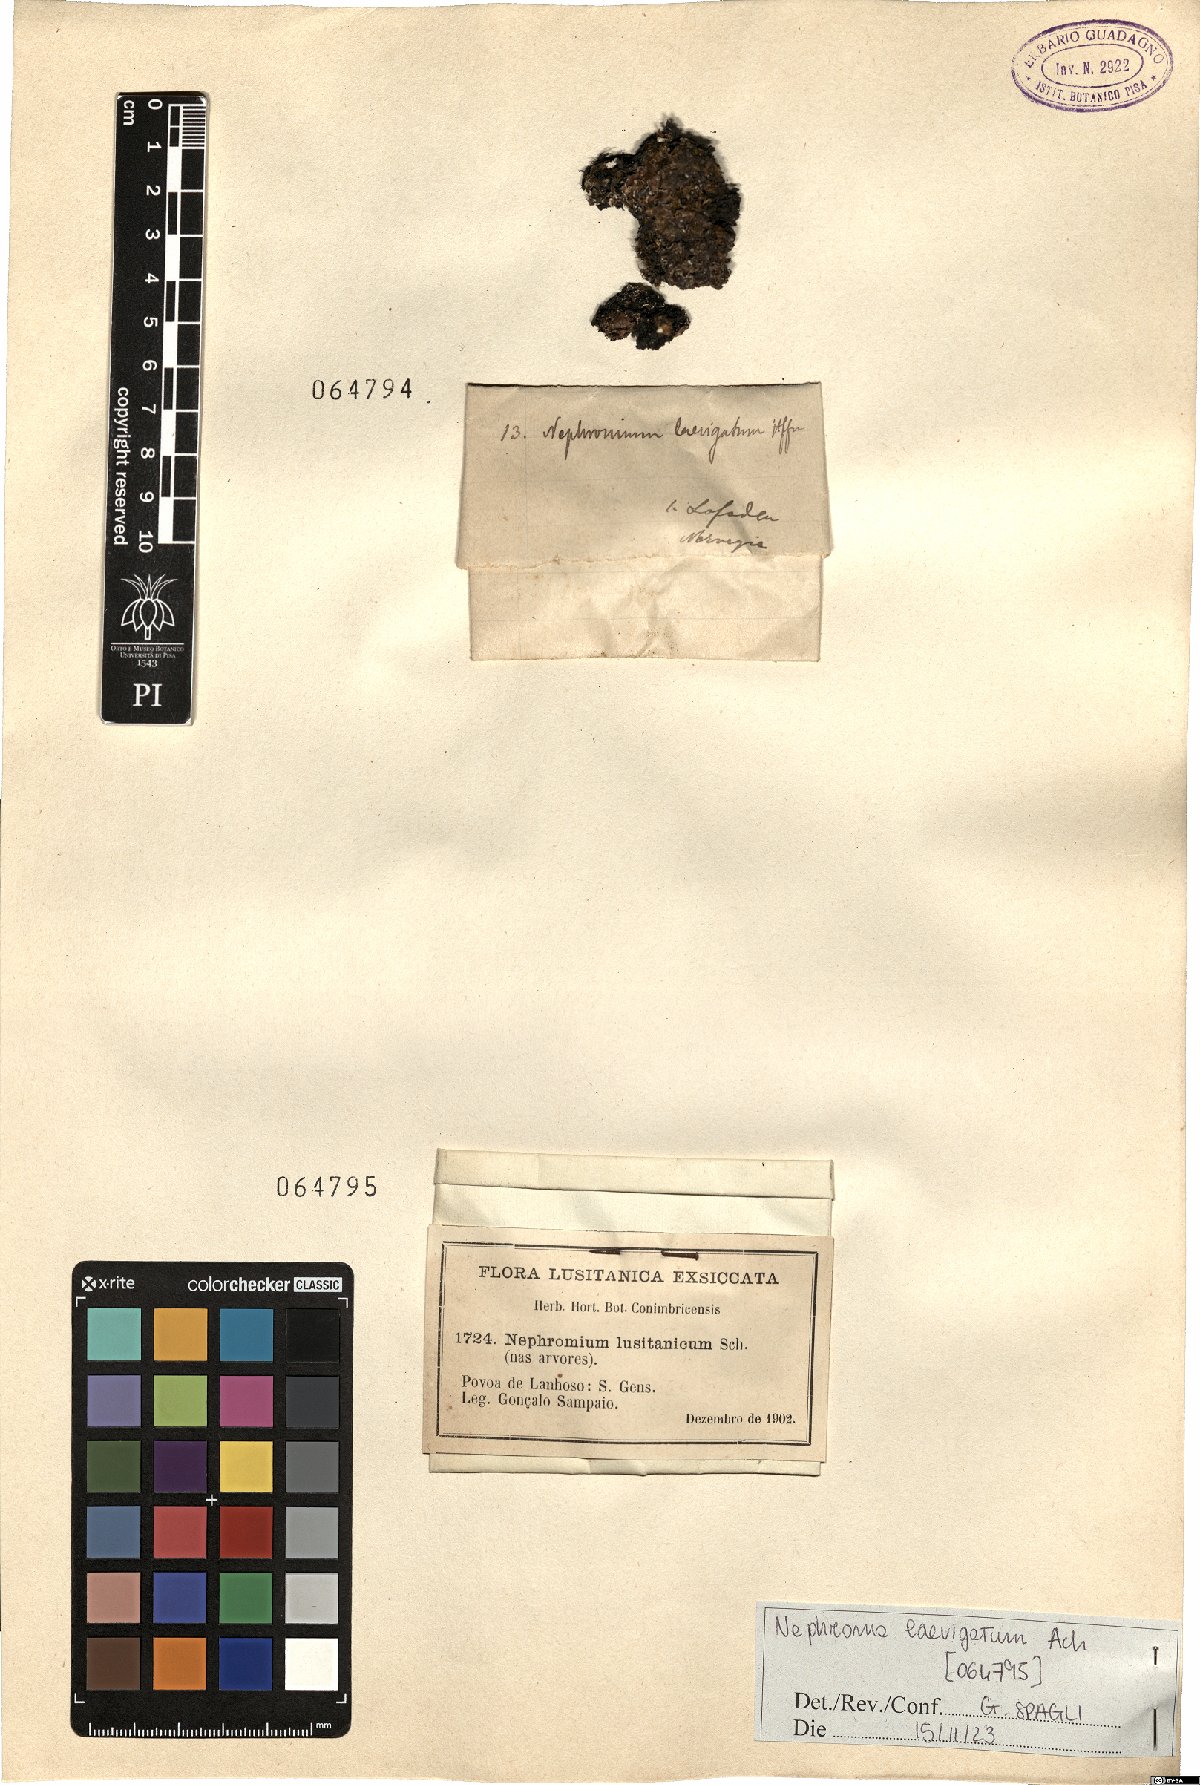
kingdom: Fungi
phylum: Ascomycota
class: Lecanoromycetes
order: Peltigerales
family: Nephromataceae
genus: Nephroma
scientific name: Nephroma laevigatum
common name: Mustard kidney lichen
